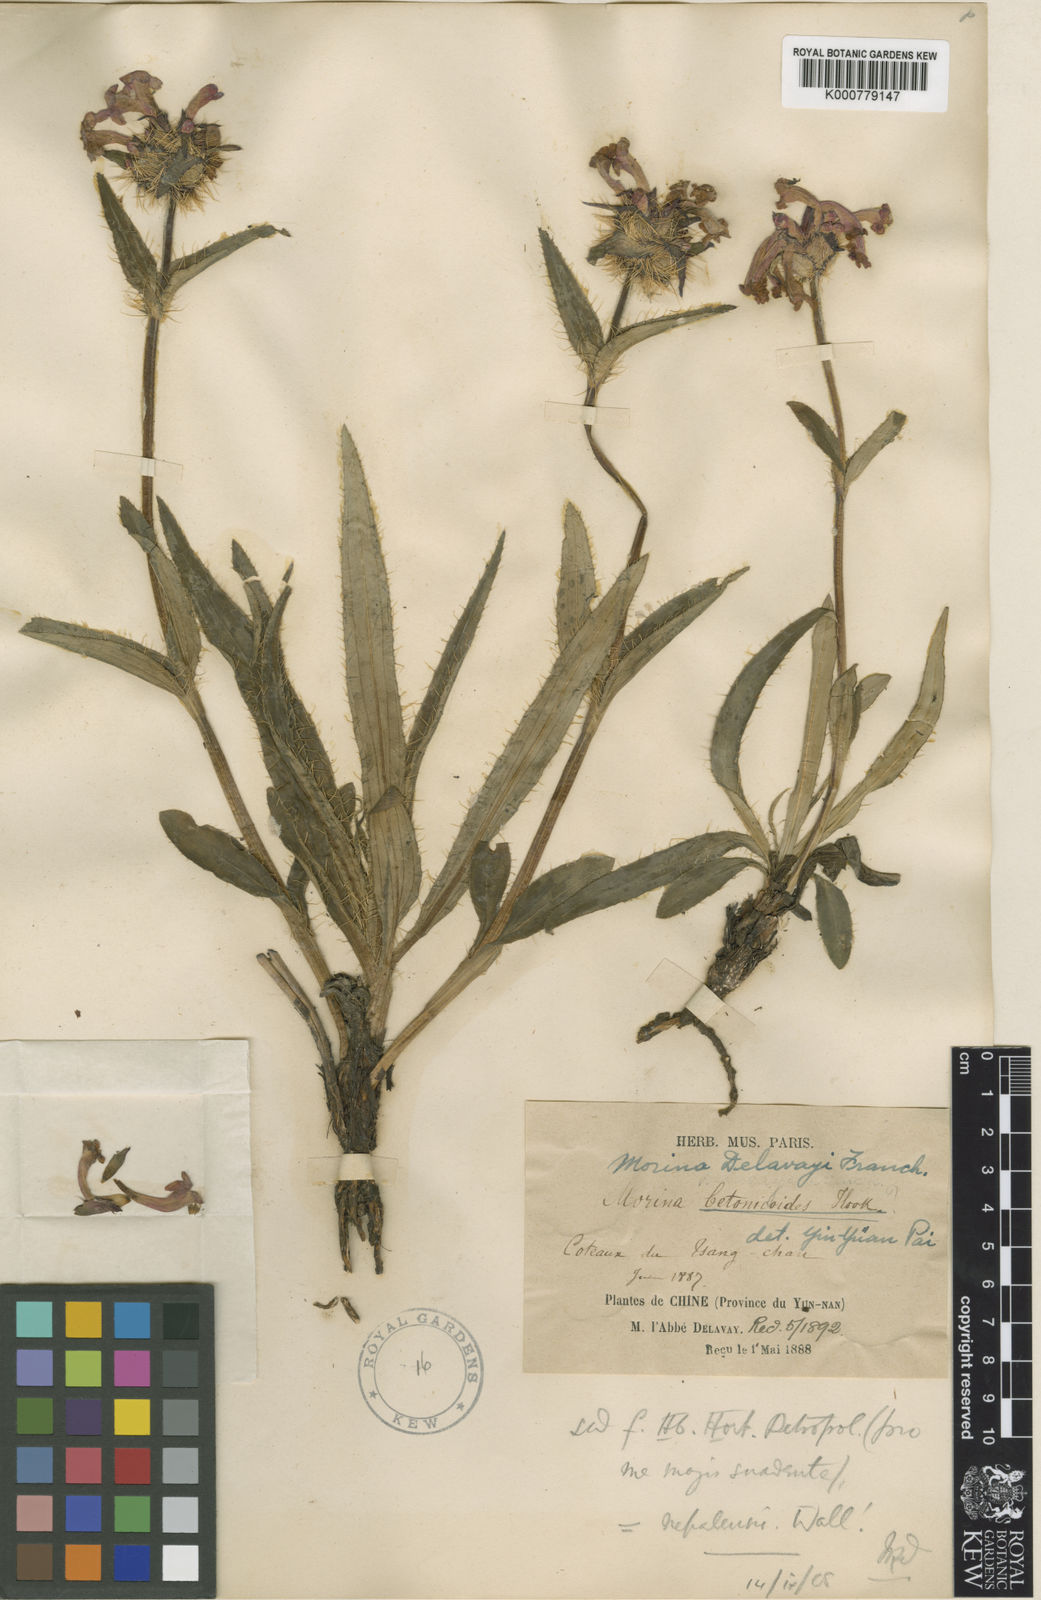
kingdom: Plantae
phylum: Tracheophyta
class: Magnoliopsida
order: Dipsacales
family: Caprifoliaceae
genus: Acanthocalyx
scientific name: Acanthocalyx nepalensis
